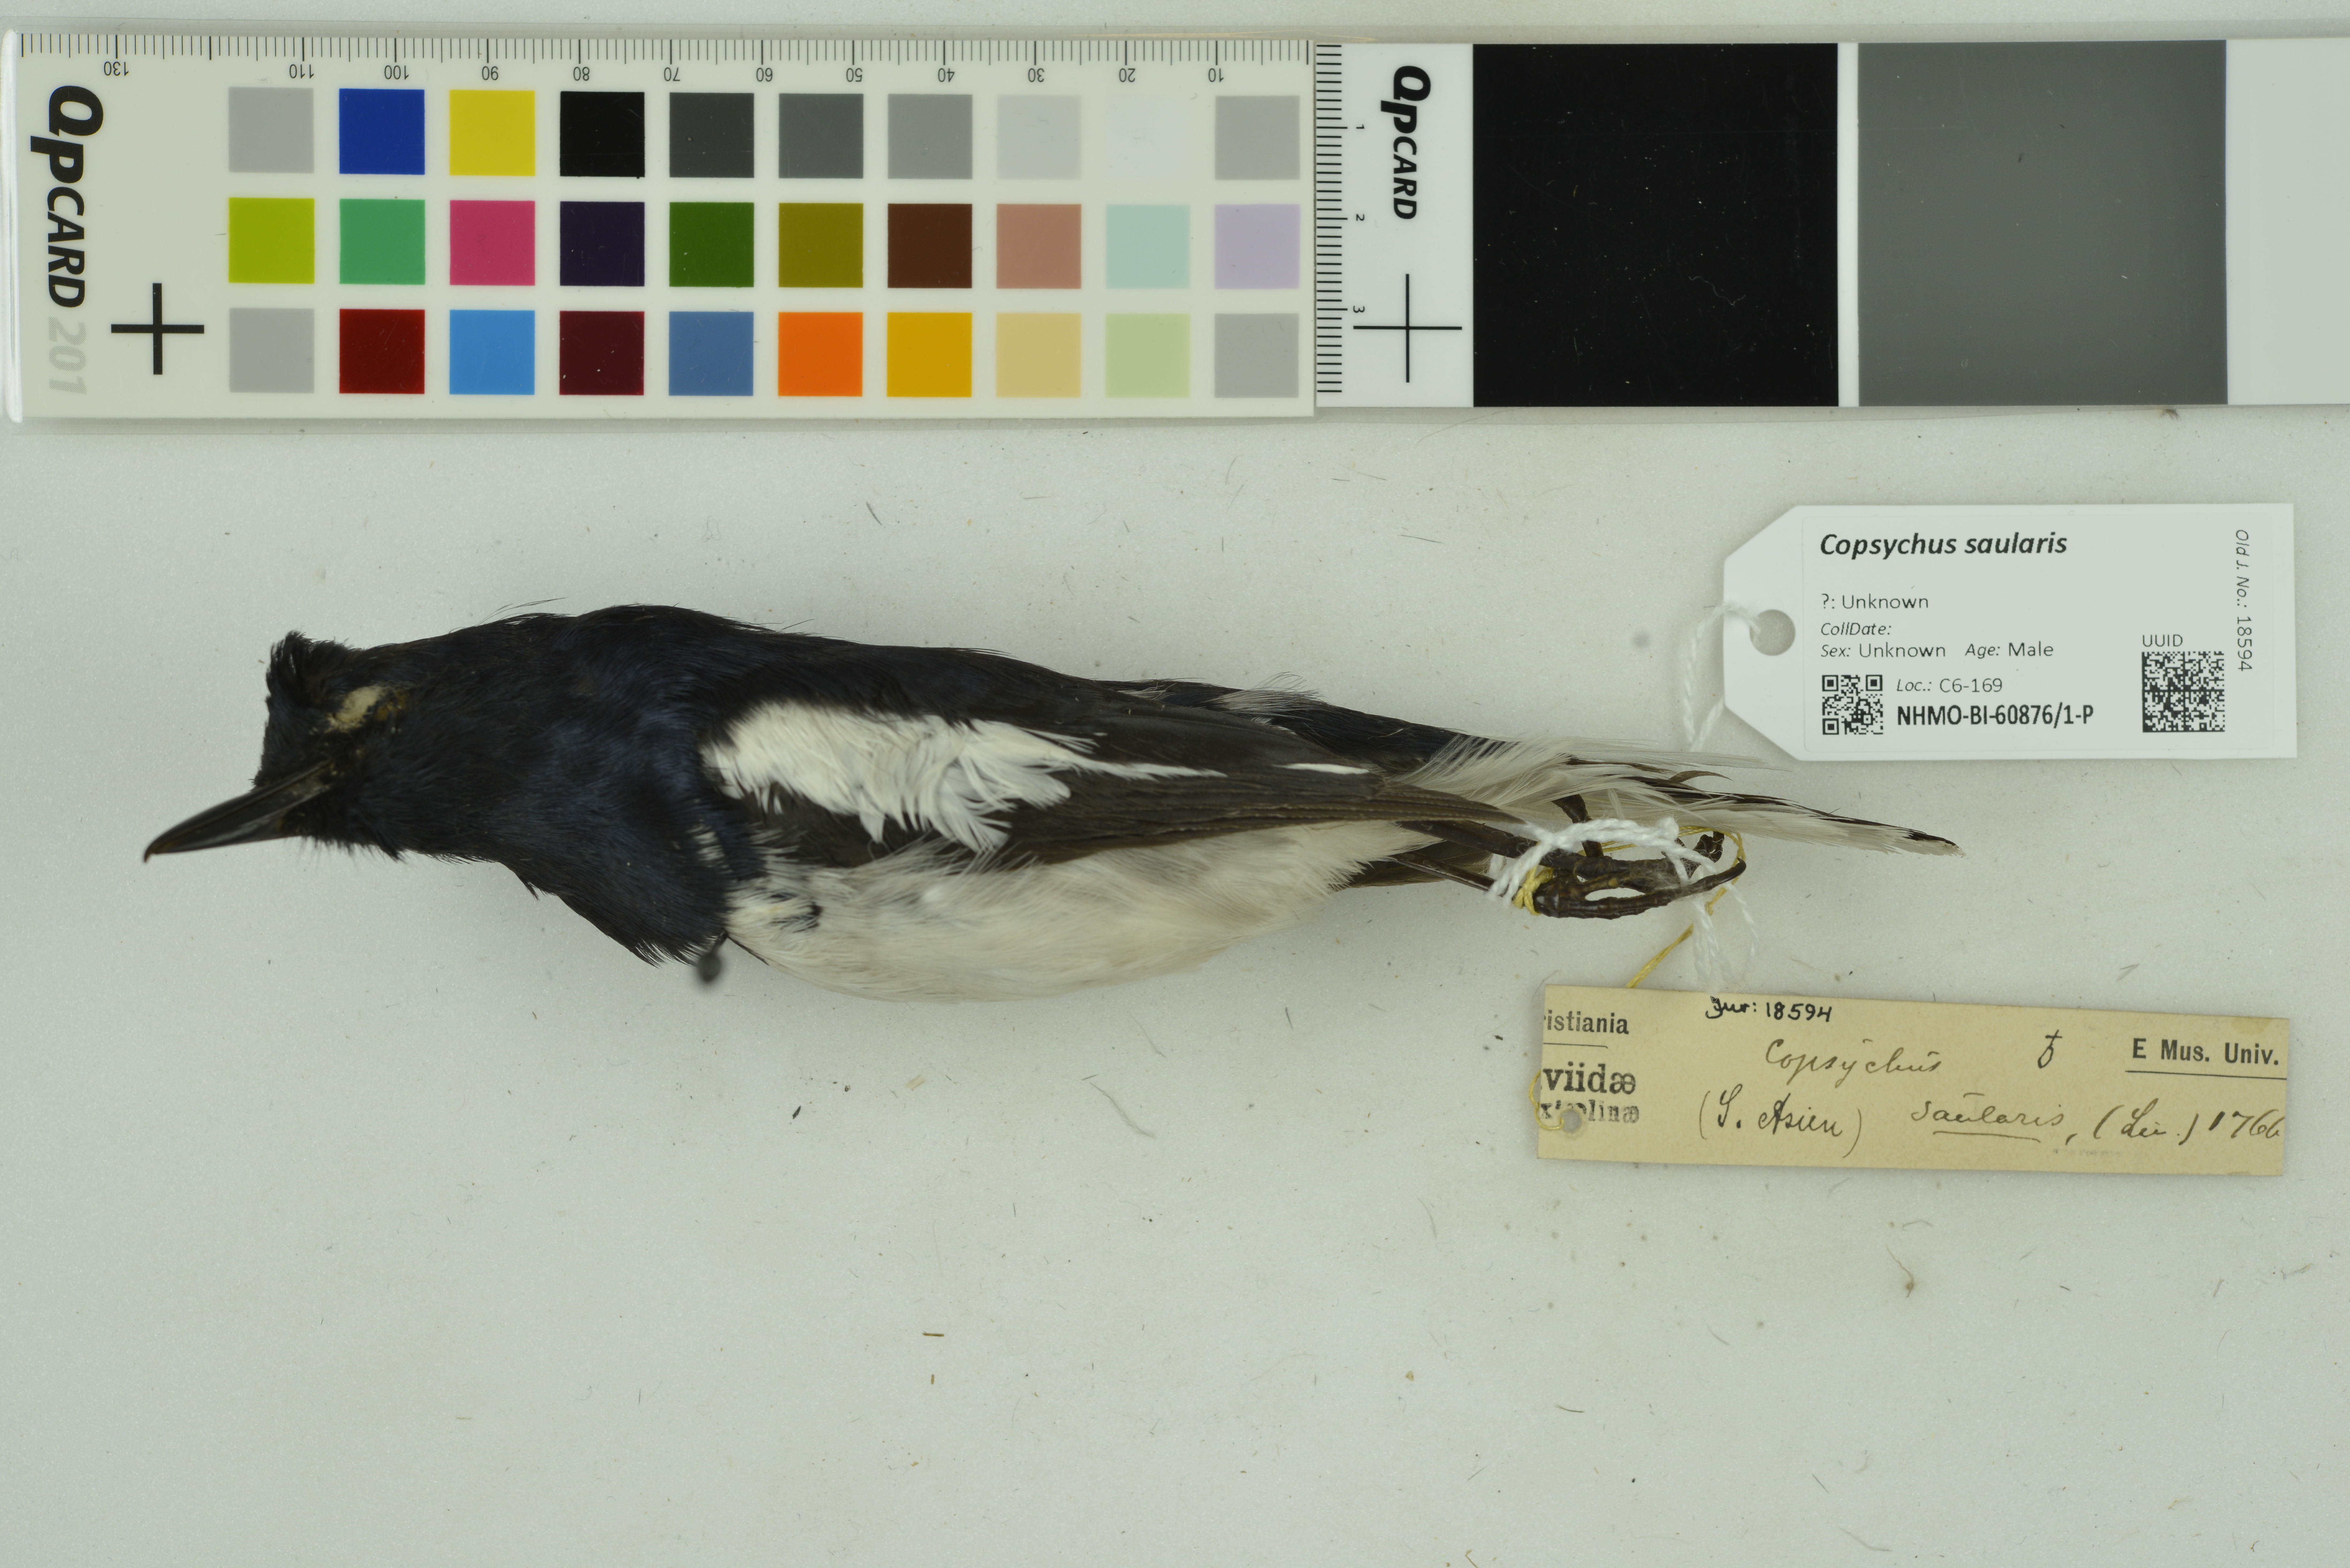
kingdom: Animalia
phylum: Chordata
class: Aves
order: Passeriformes
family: Muscicapidae
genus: Copsychus
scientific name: Copsychus saularis
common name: Oriental magpie-robin
